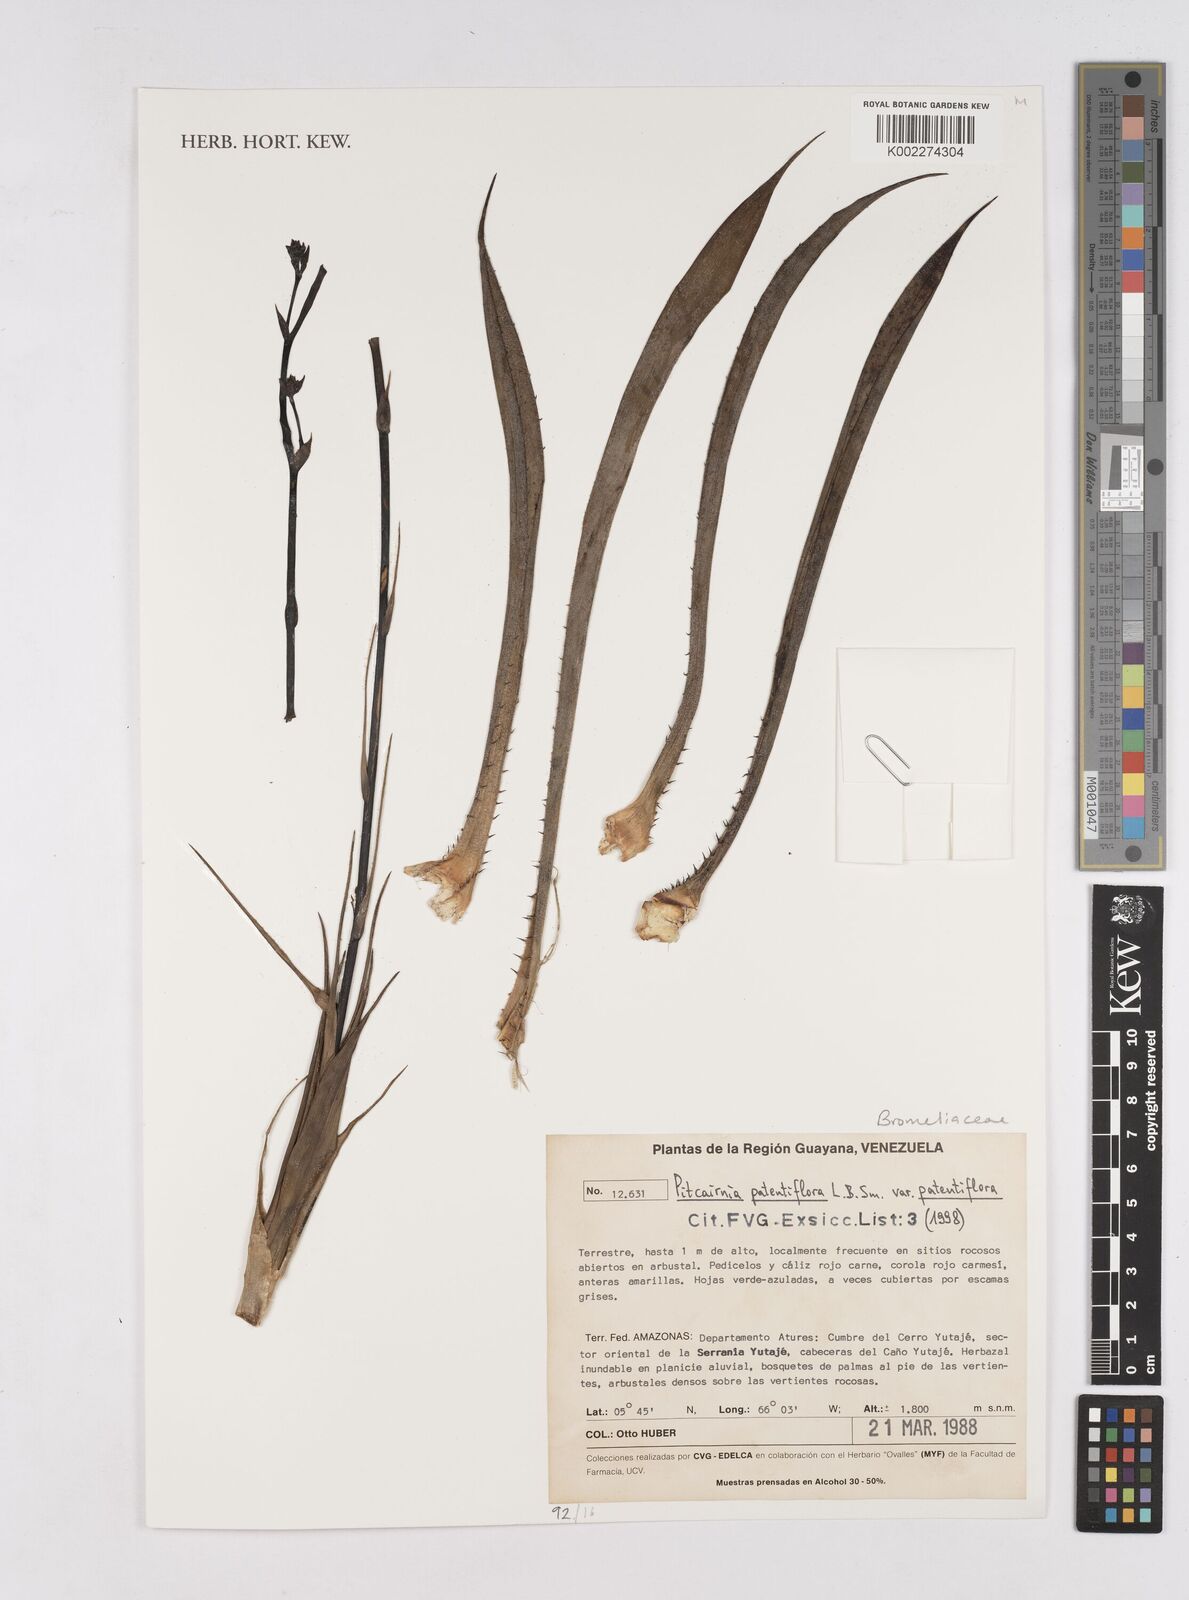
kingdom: Plantae
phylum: Tracheophyta
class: Liliopsida
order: Poales
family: Bromeliaceae
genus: Pitcairnia
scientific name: Pitcairnia patentiflora
